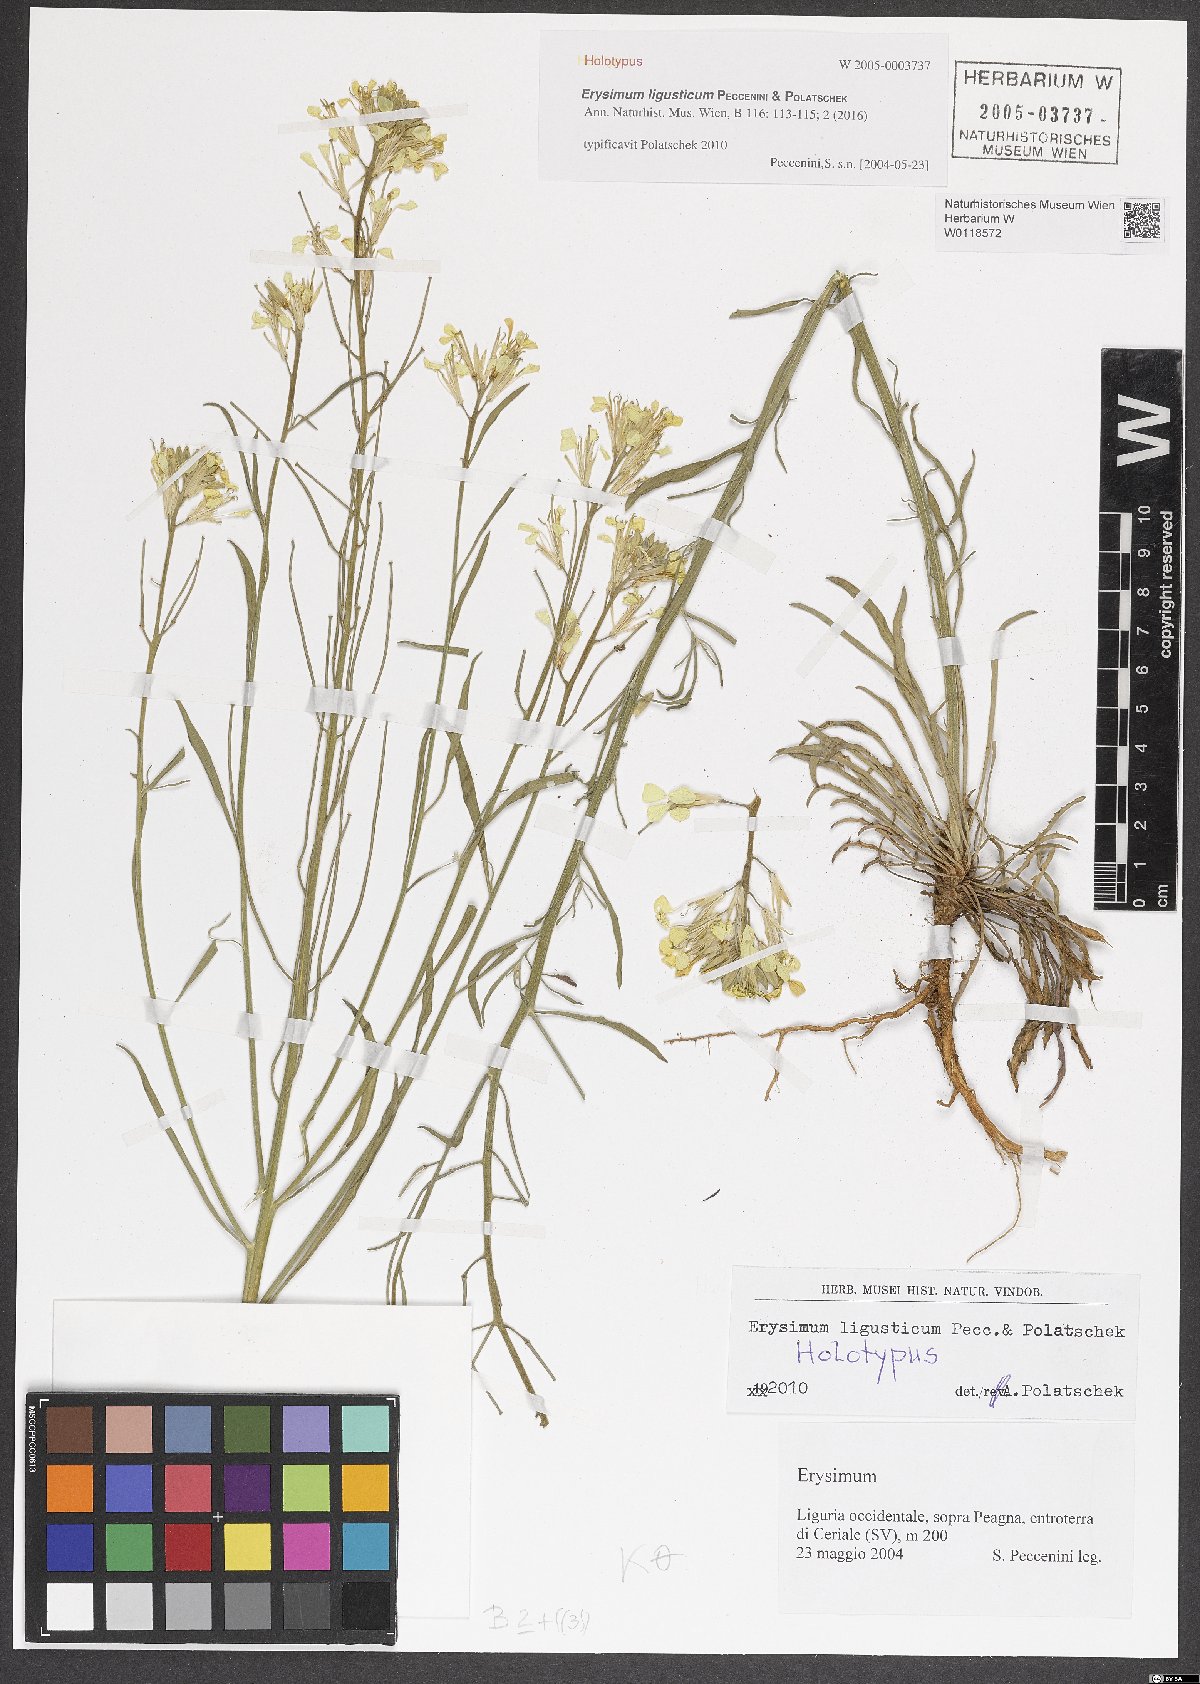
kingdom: Plantae
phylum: Tracheophyta
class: Magnoliopsida
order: Brassicales
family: Brassicaceae
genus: Erysimum
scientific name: Erysimum ligusticum
